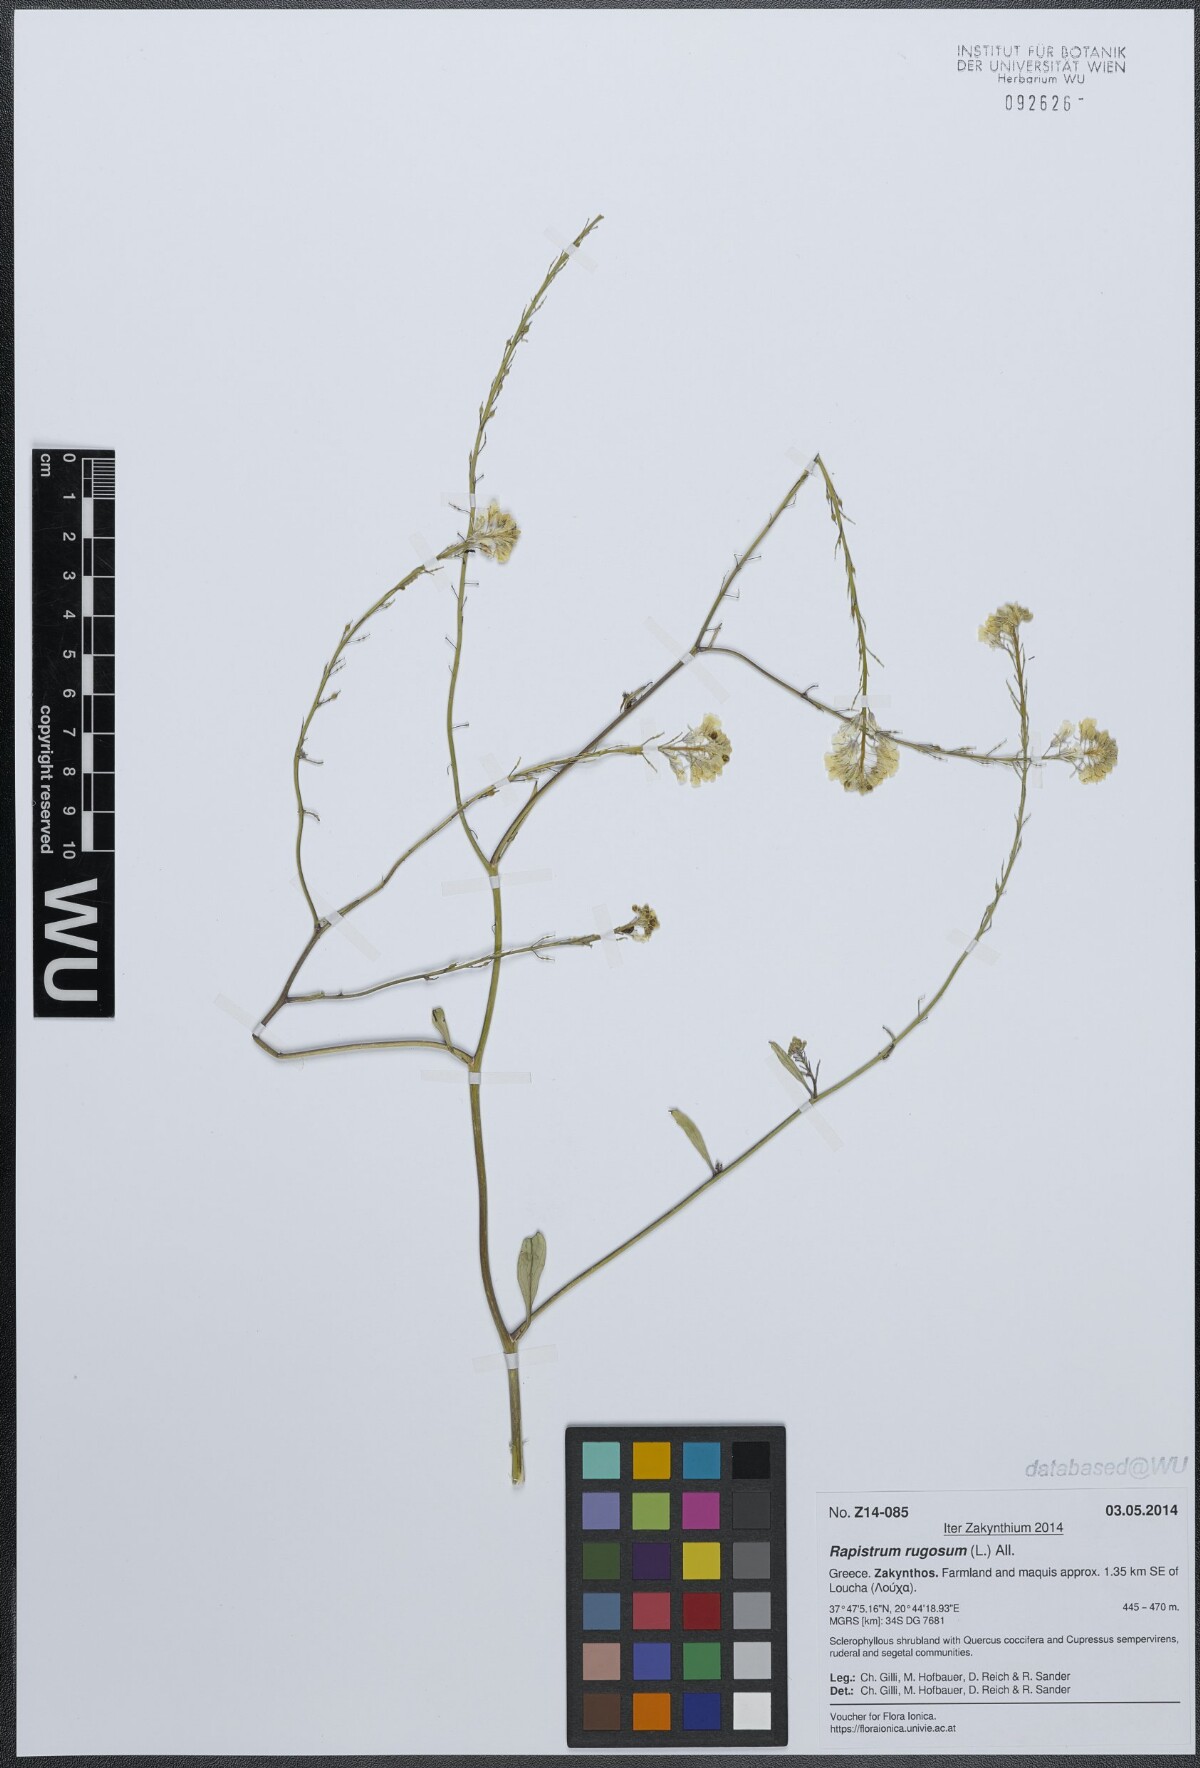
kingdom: Plantae
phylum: Tracheophyta
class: Magnoliopsida
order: Brassicales
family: Brassicaceae
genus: Rapistrum
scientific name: Rapistrum rugosum
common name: Annual bastardcabbage
